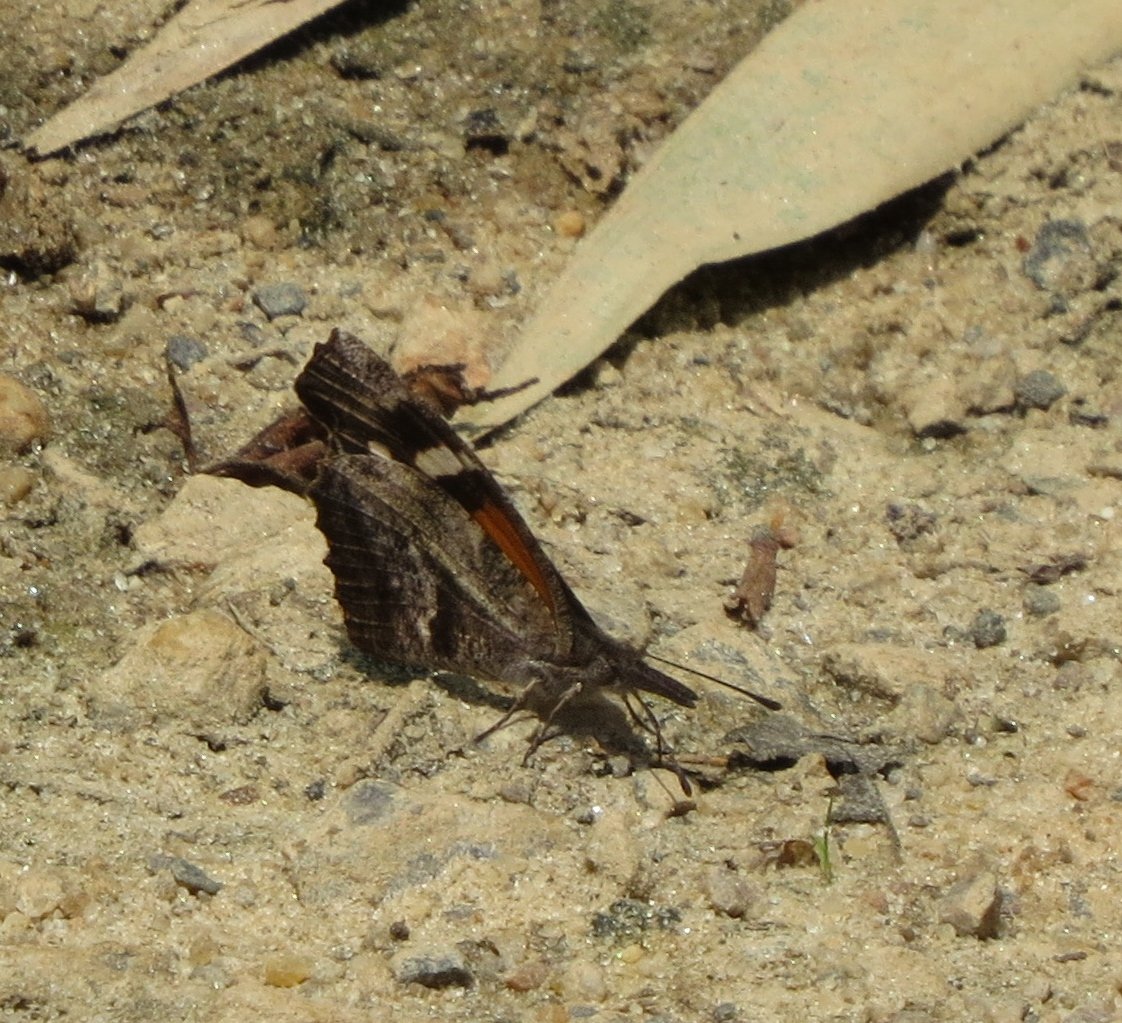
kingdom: Animalia
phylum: Arthropoda
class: Insecta
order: Lepidoptera
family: Nymphalidae
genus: Libytheana
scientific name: Libytheana carinenta
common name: American Snout
